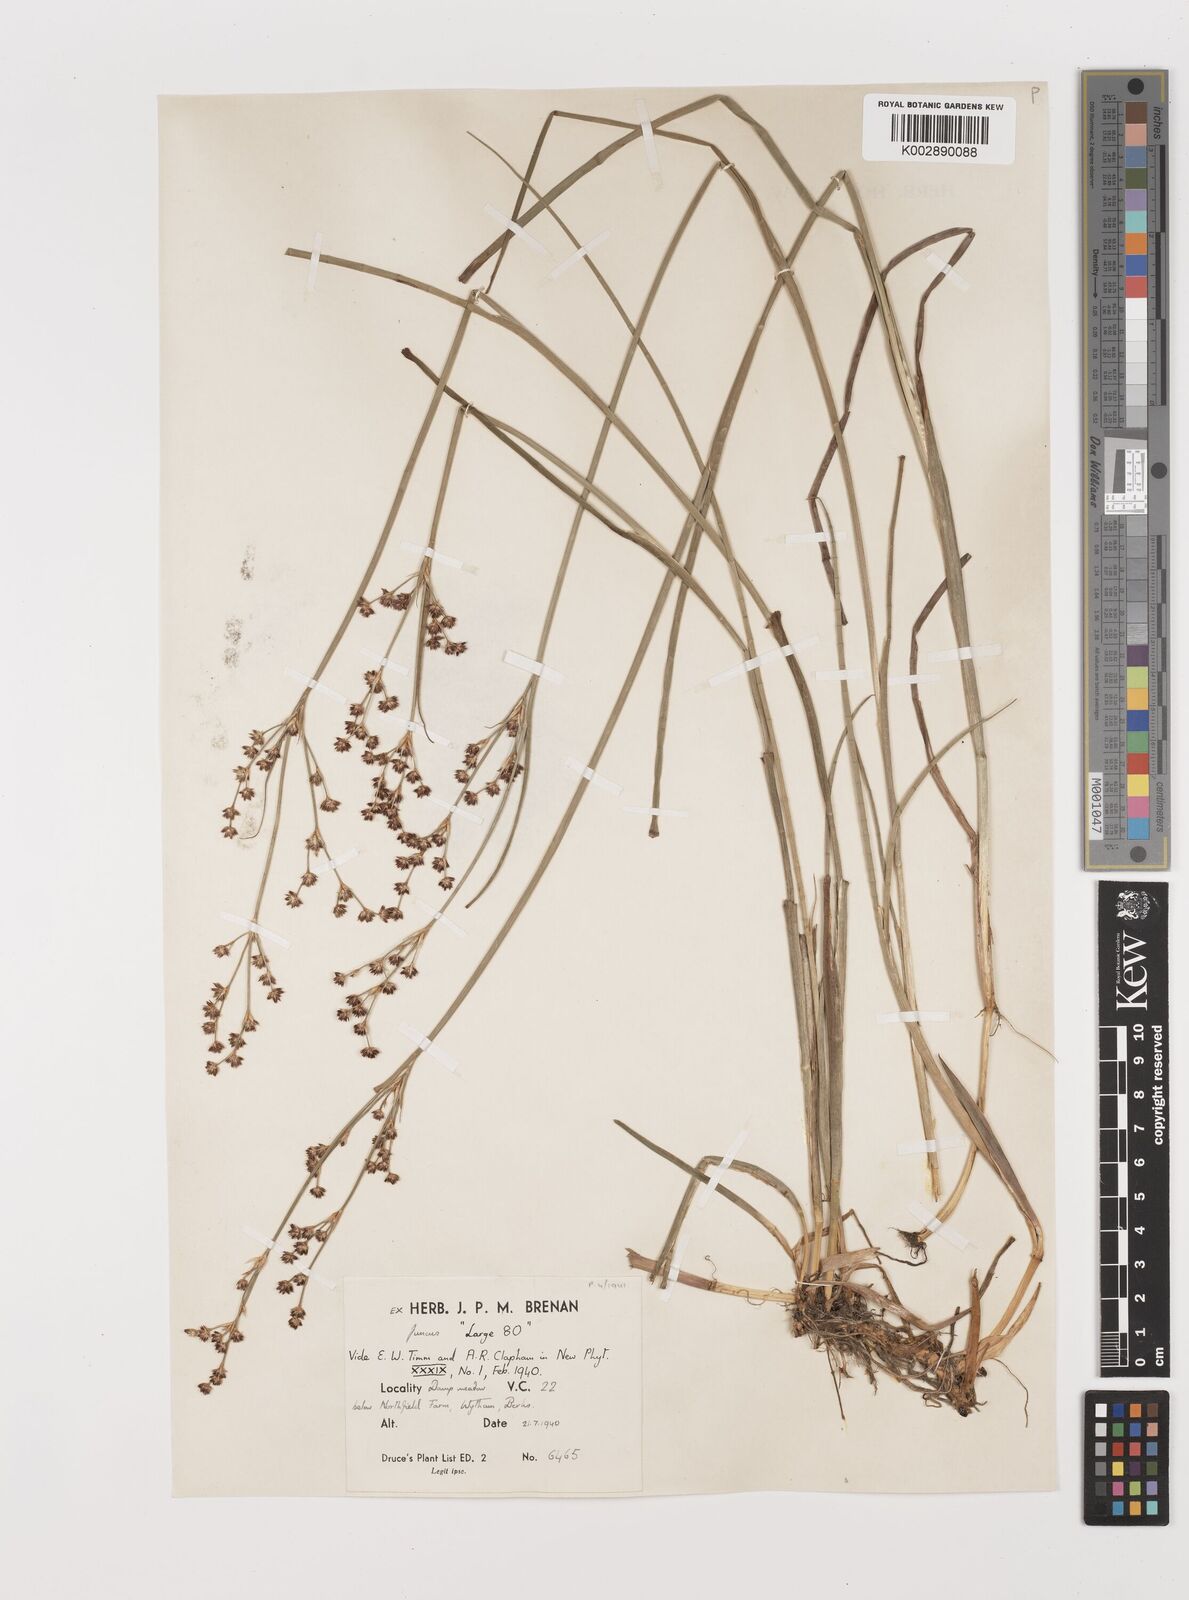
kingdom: Plantae
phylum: Tracheophyta
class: Liliopsida
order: Poales
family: Juncaceae
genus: Juncus
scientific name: Juncus articulatus
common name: Jointed rush
